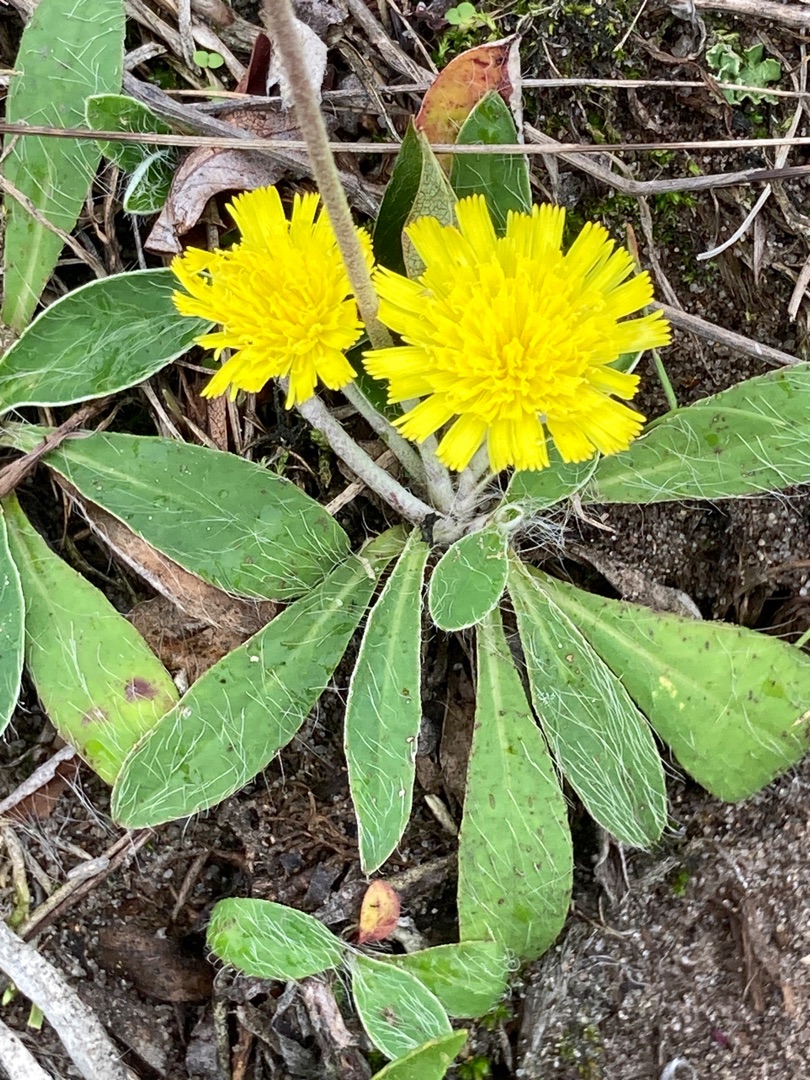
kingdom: Plantae
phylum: Tracheophyta
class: Magnoliopsida
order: Asterales
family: Asteraceae
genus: Pilosella
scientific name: Pilosella officinarum
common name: Håret høgeurt
